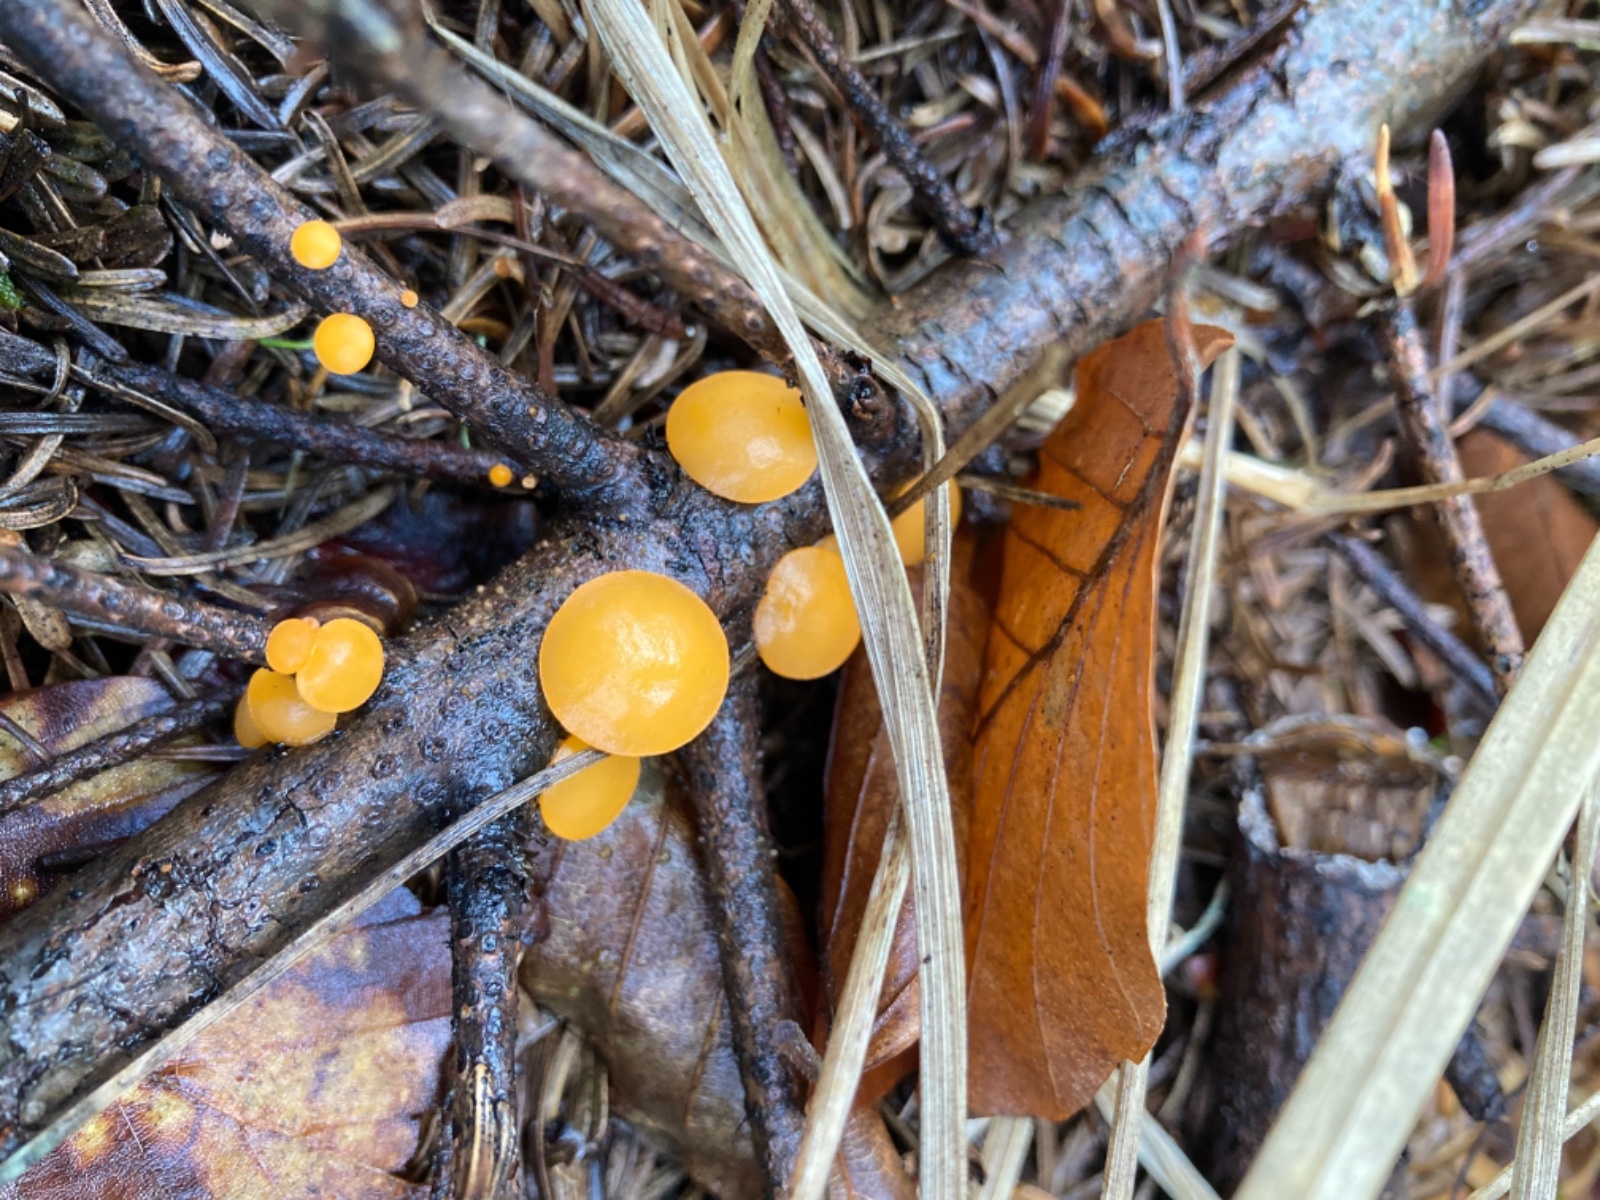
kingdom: Fungi
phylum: Ascomycota
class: Pezizomycetes
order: Pezizales
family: Sarcoscyphaceae
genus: Pithya
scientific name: Pithya vulgaris
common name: stor dukatbæger
